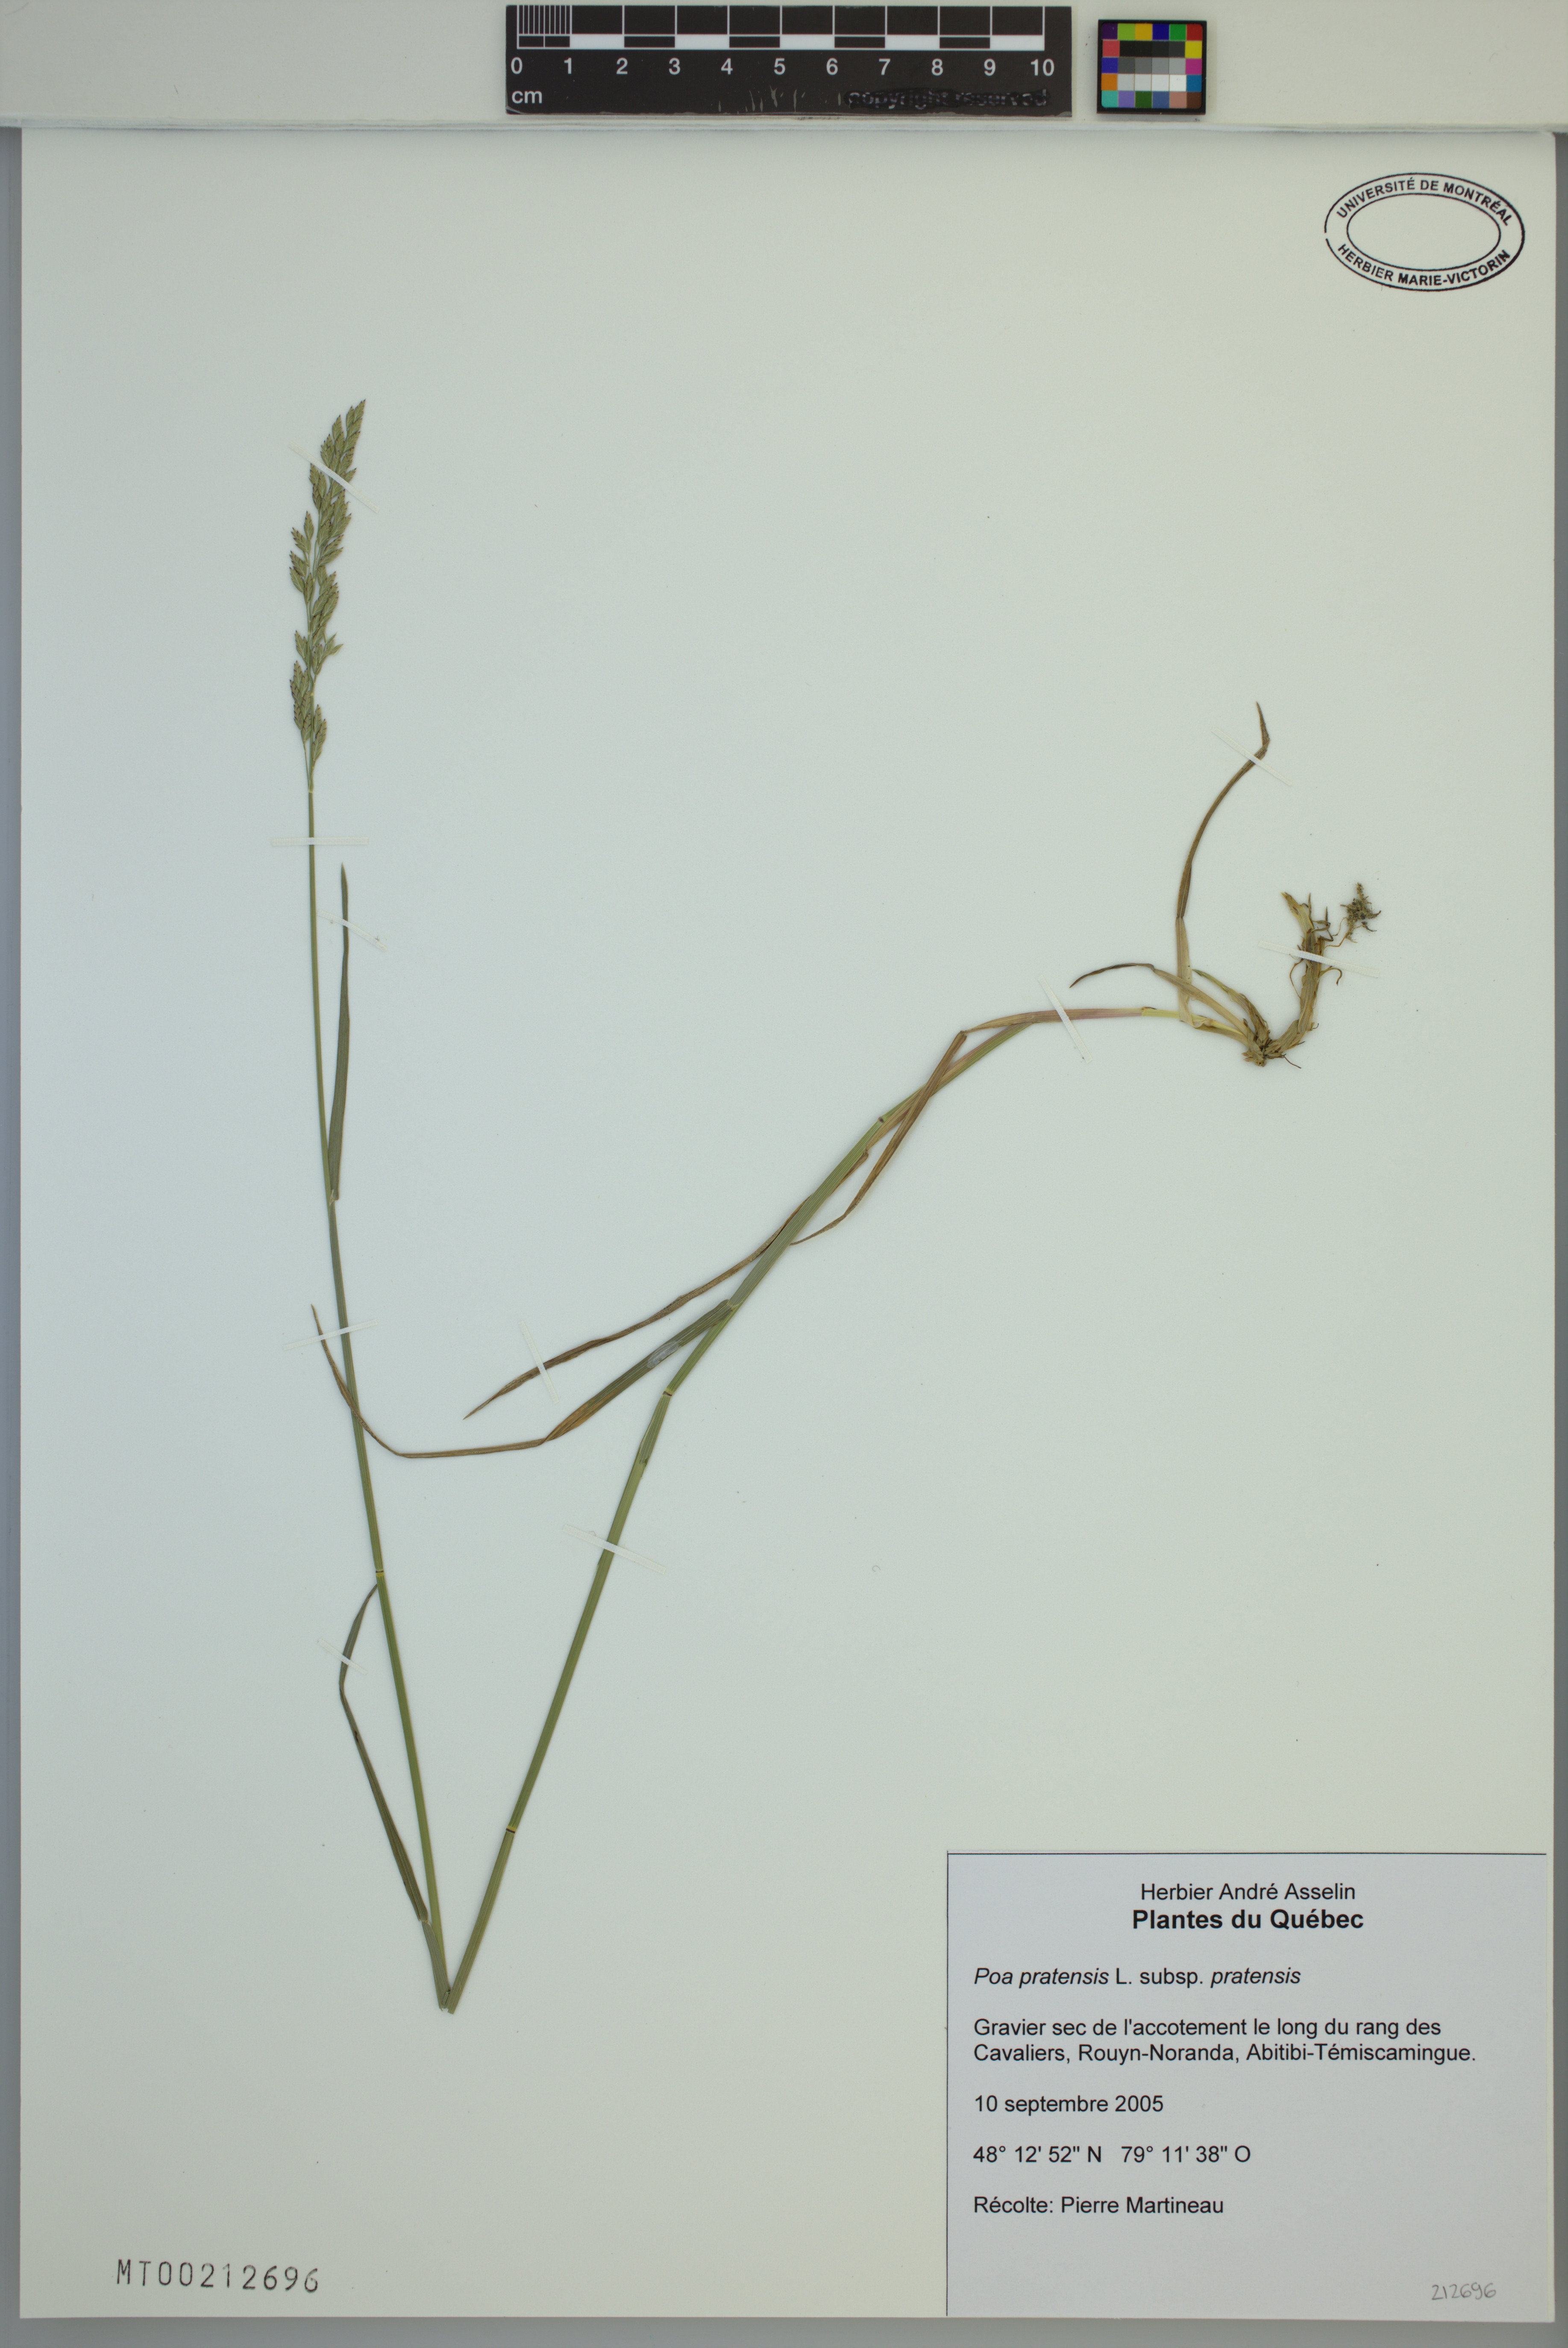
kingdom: Plantae
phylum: Tracheophyta
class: Liliopsida
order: Poales
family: Poaceae
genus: Poa
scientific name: Poa pratensis
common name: Kentucky bluegrass
